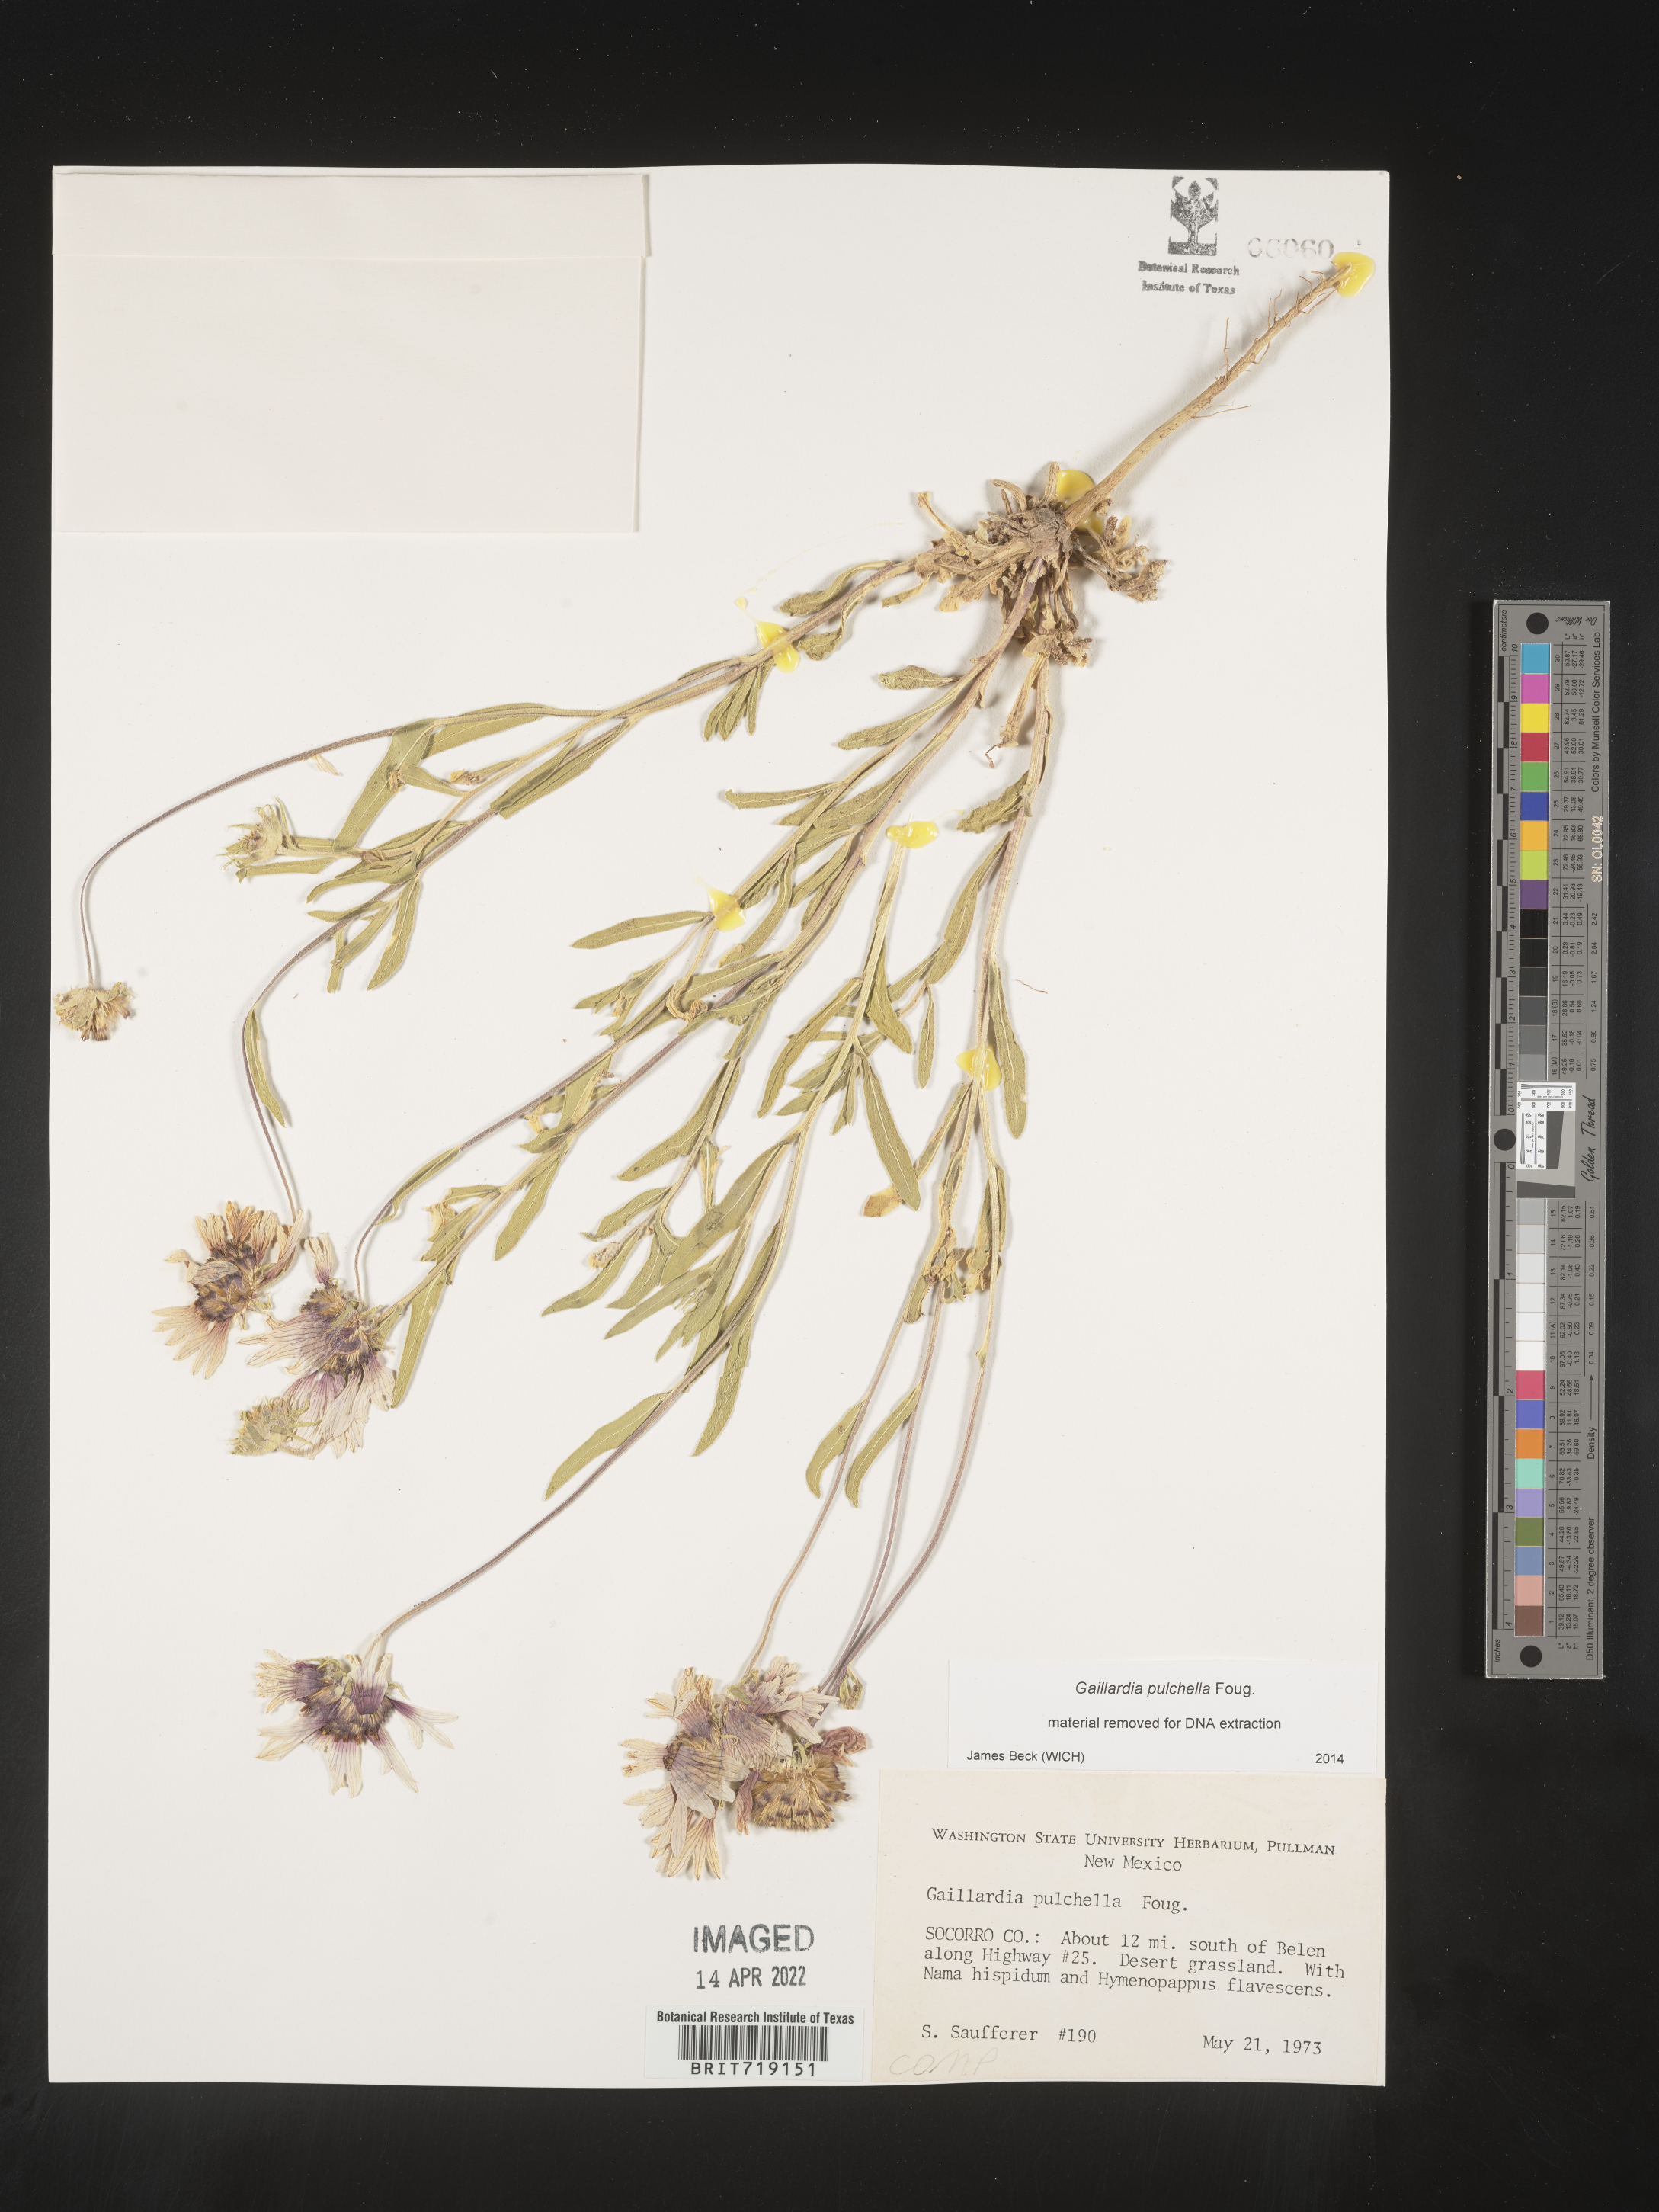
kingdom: Plantae
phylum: Tracheophyta
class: Magnoliopsida
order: Asterales
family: Asteraceae
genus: Gaillardia
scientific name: Gaillardia pulchella
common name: Firewheel
